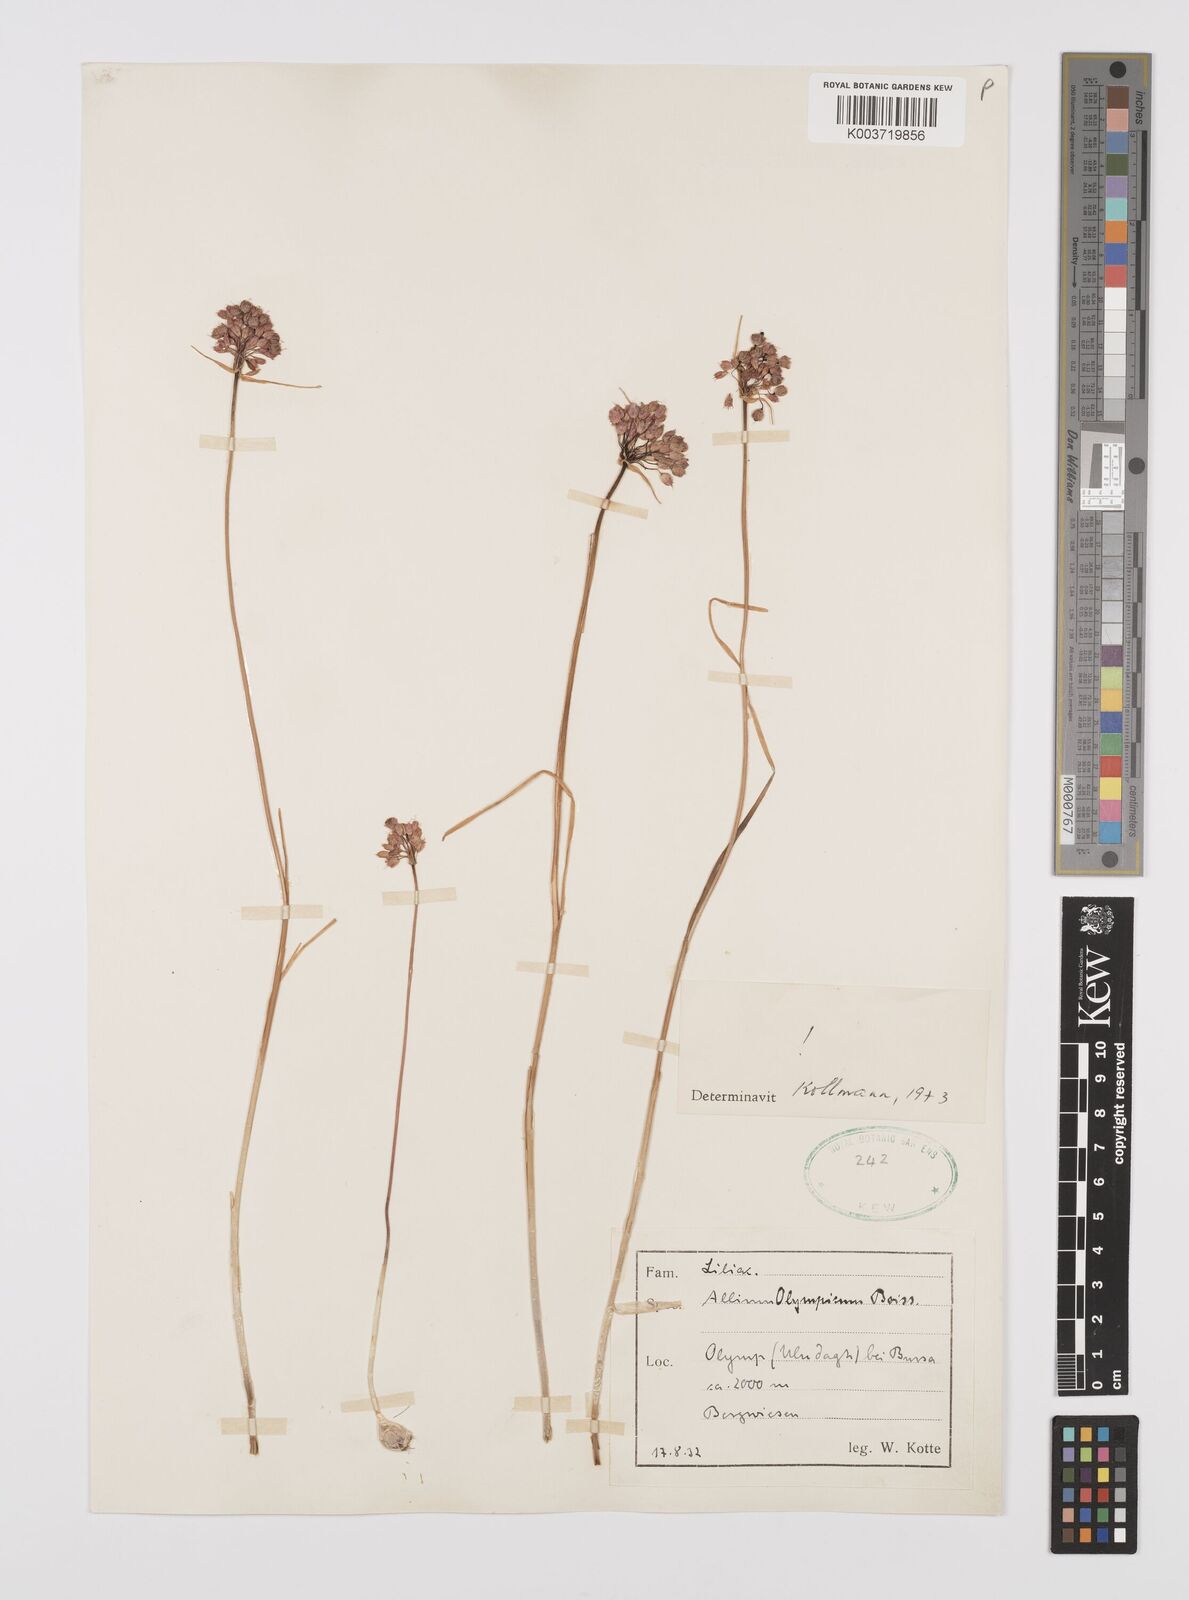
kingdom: Plantae
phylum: Tracheophyta
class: Liliopsida
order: Asparagales
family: Amaryllidaceae
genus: Allium
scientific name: Allium olympicum
